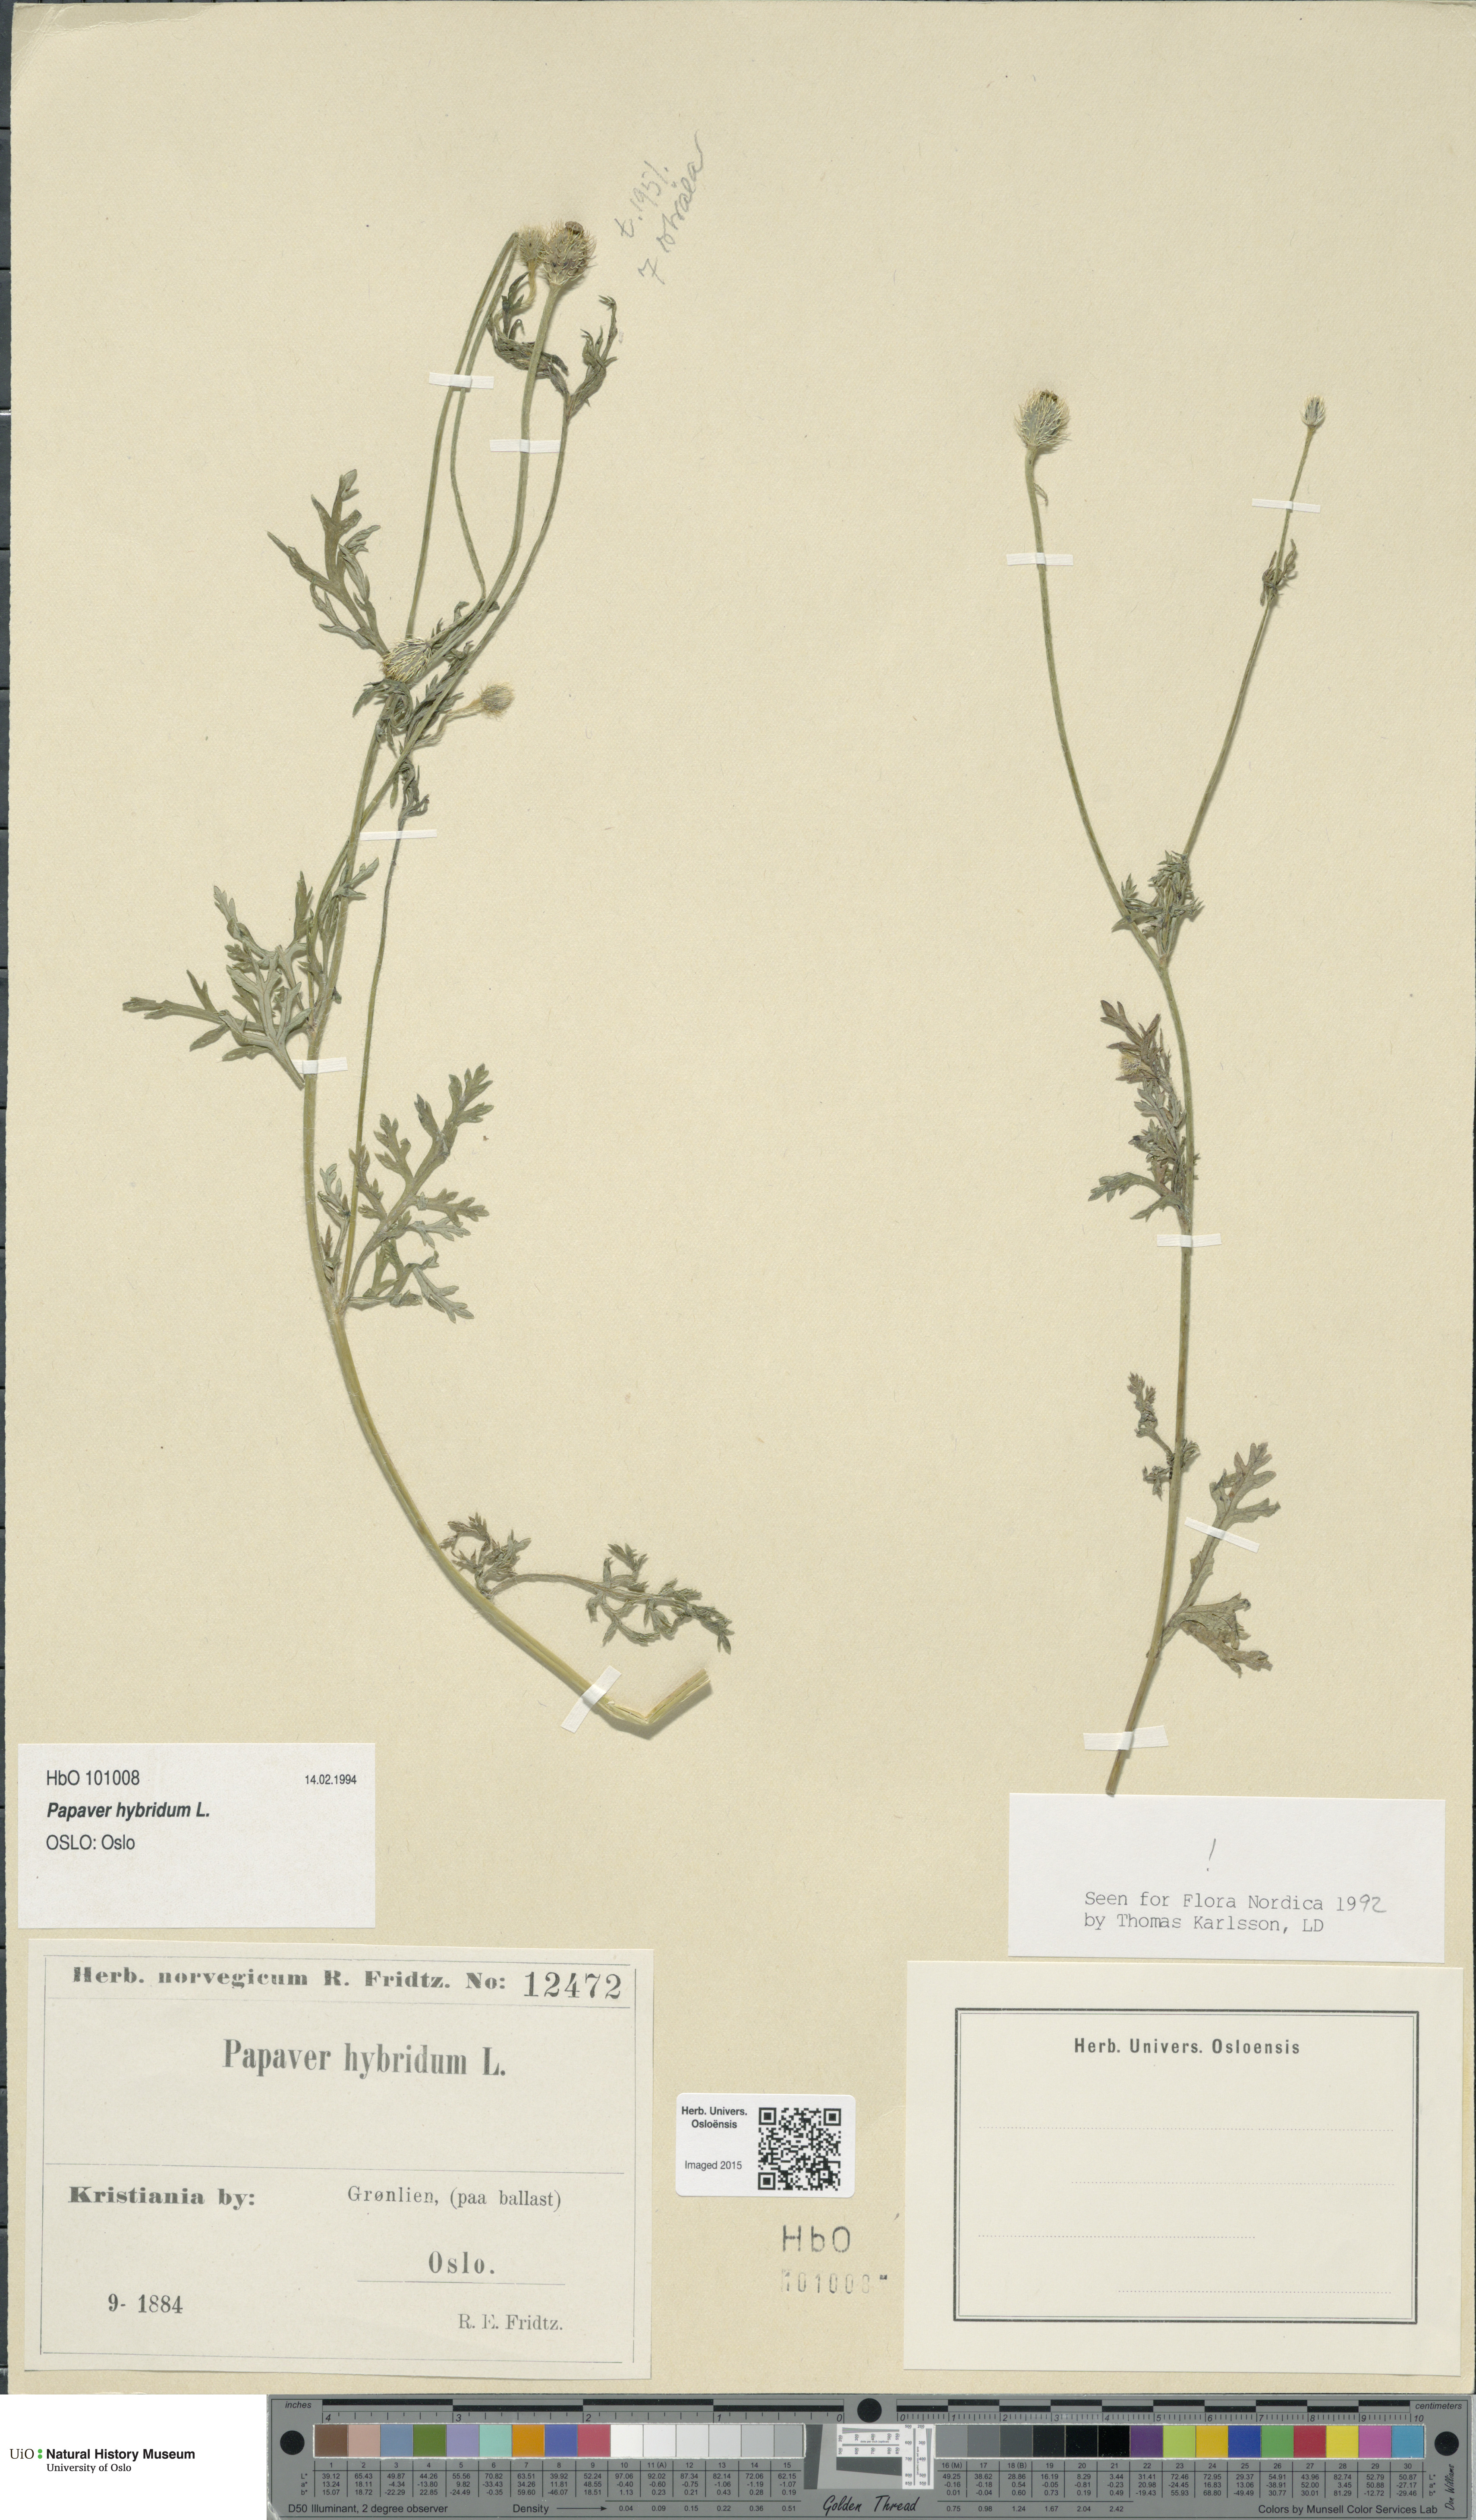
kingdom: Plantae
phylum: Tracheophyta
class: Magnoliopsida
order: Ranunculales
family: Papaveraceae
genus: Roemeria
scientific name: Roemeria hispida
